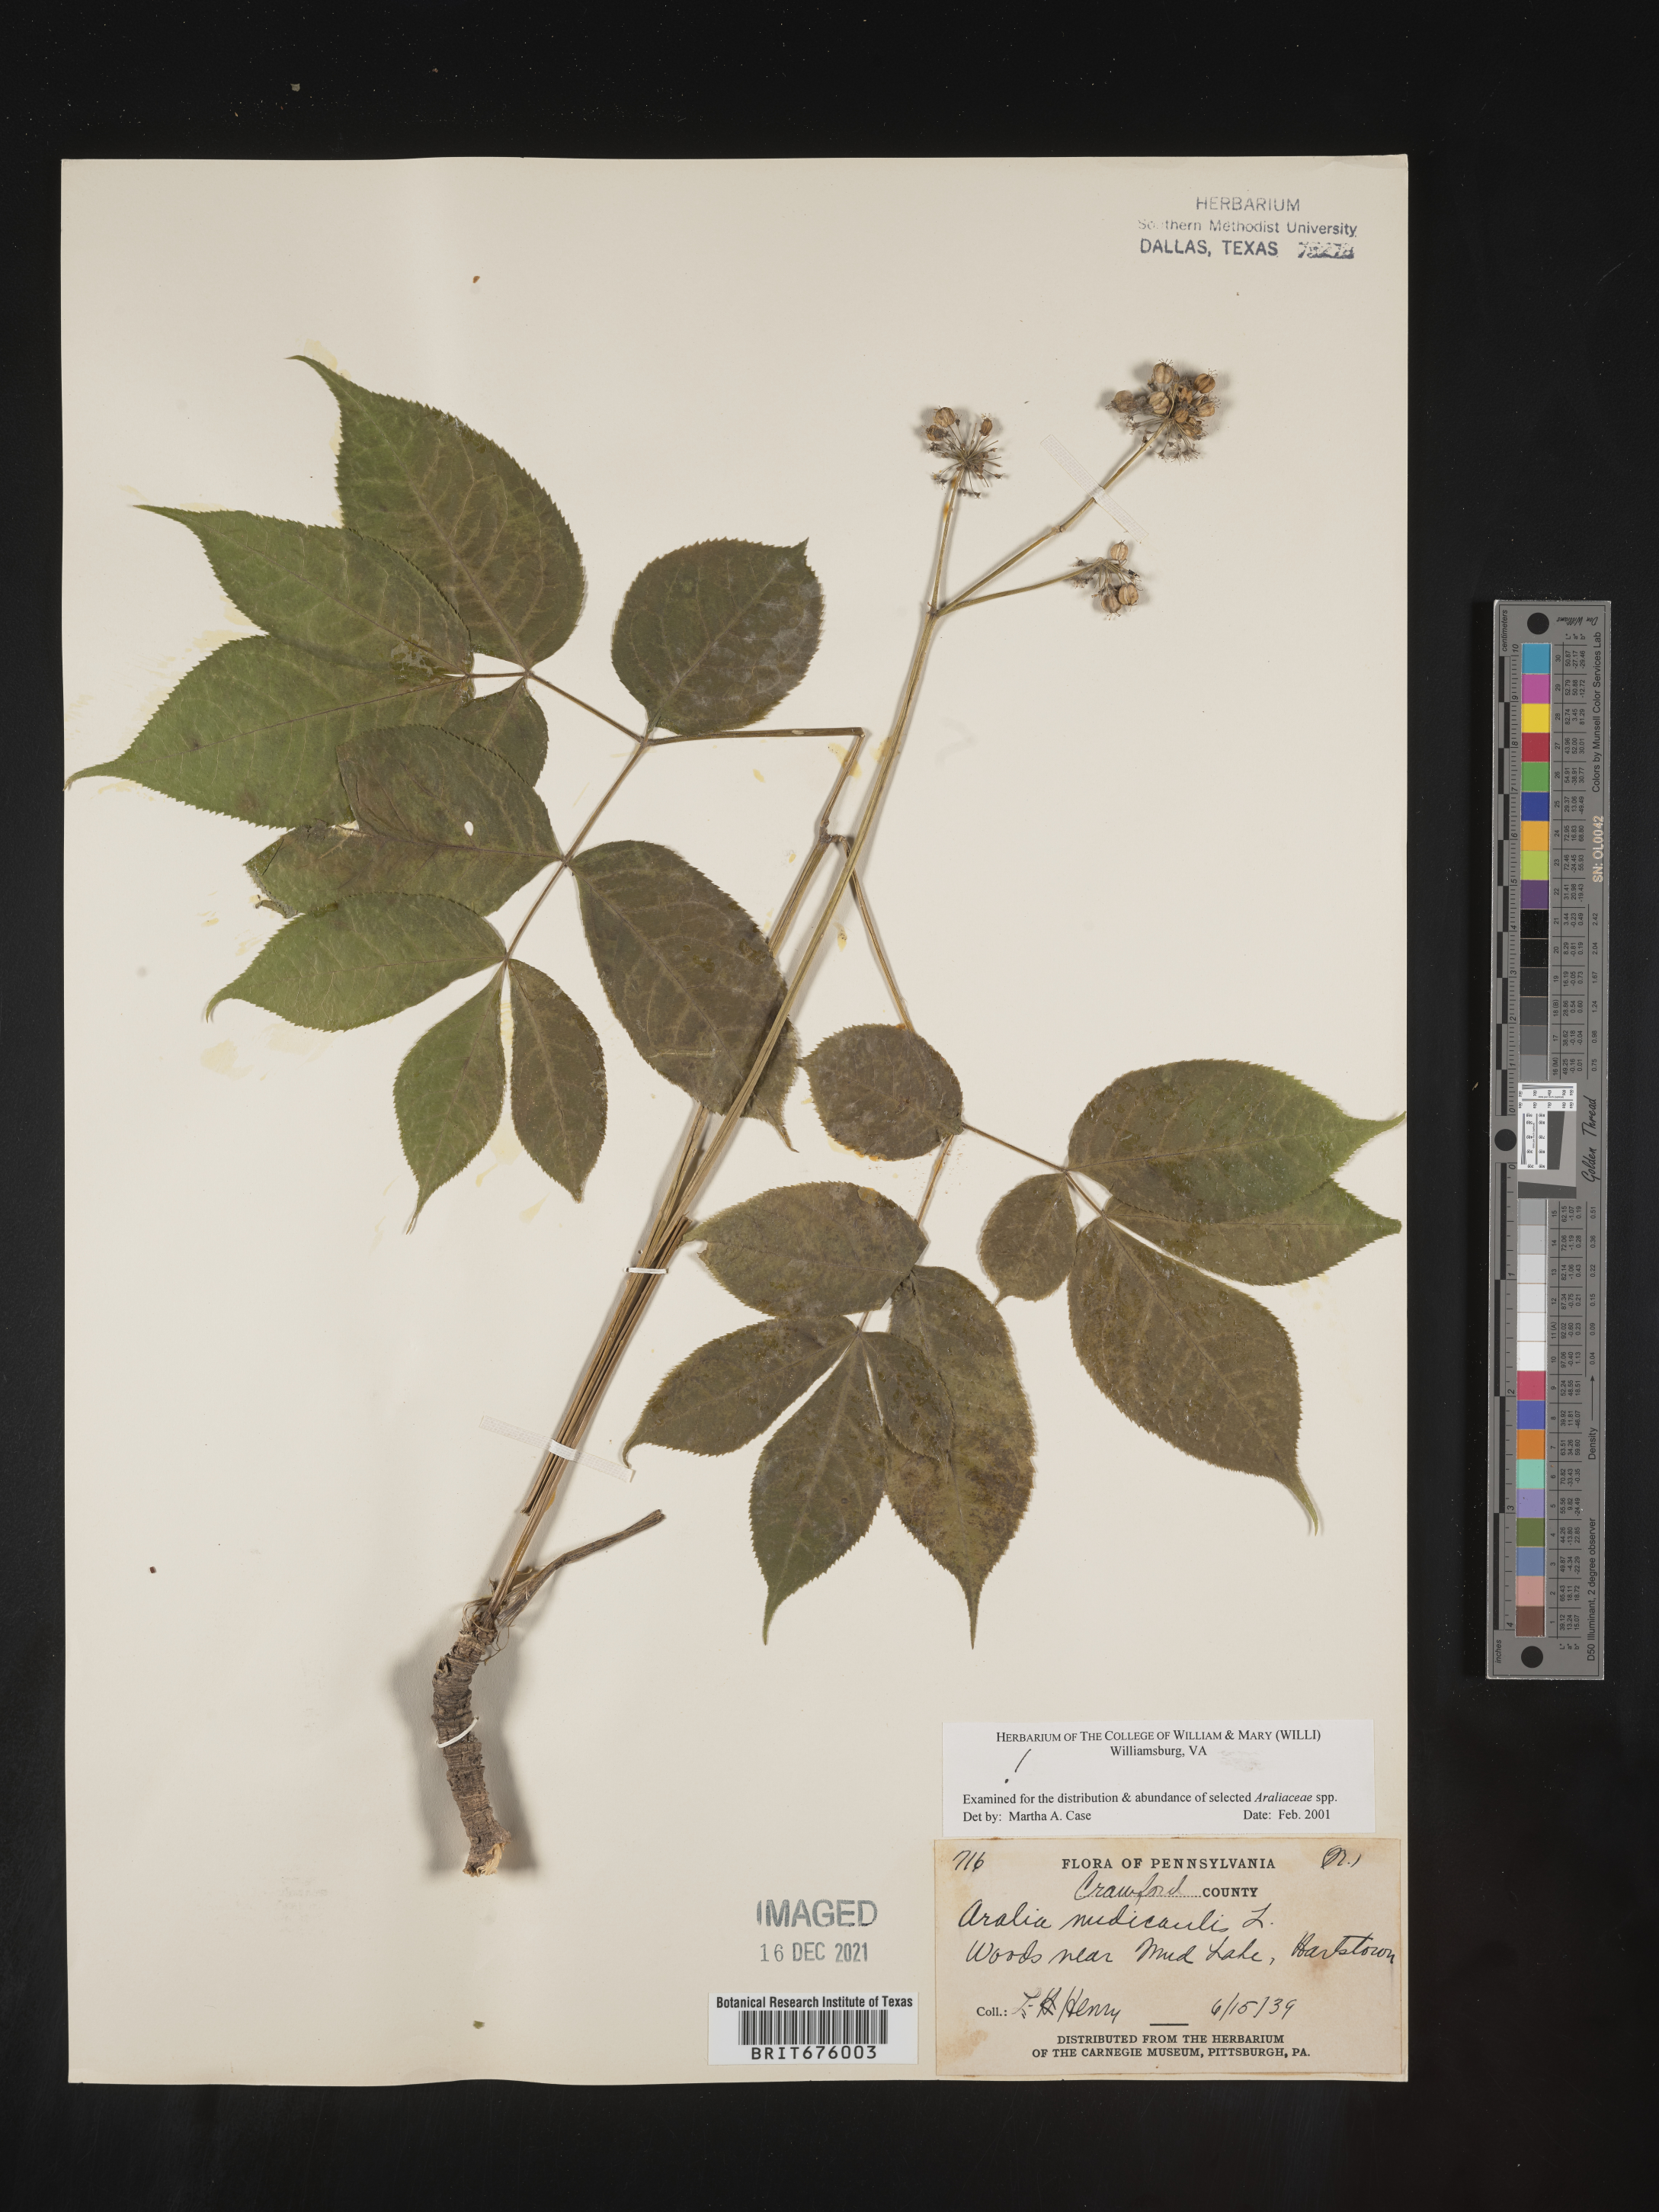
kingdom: Plantae
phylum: Tracheophyta
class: Magnoliopsida
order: Apiales
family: Araliaceae
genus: Aralia
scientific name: Aralia nudicaulis
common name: Wild sarsaparilla
